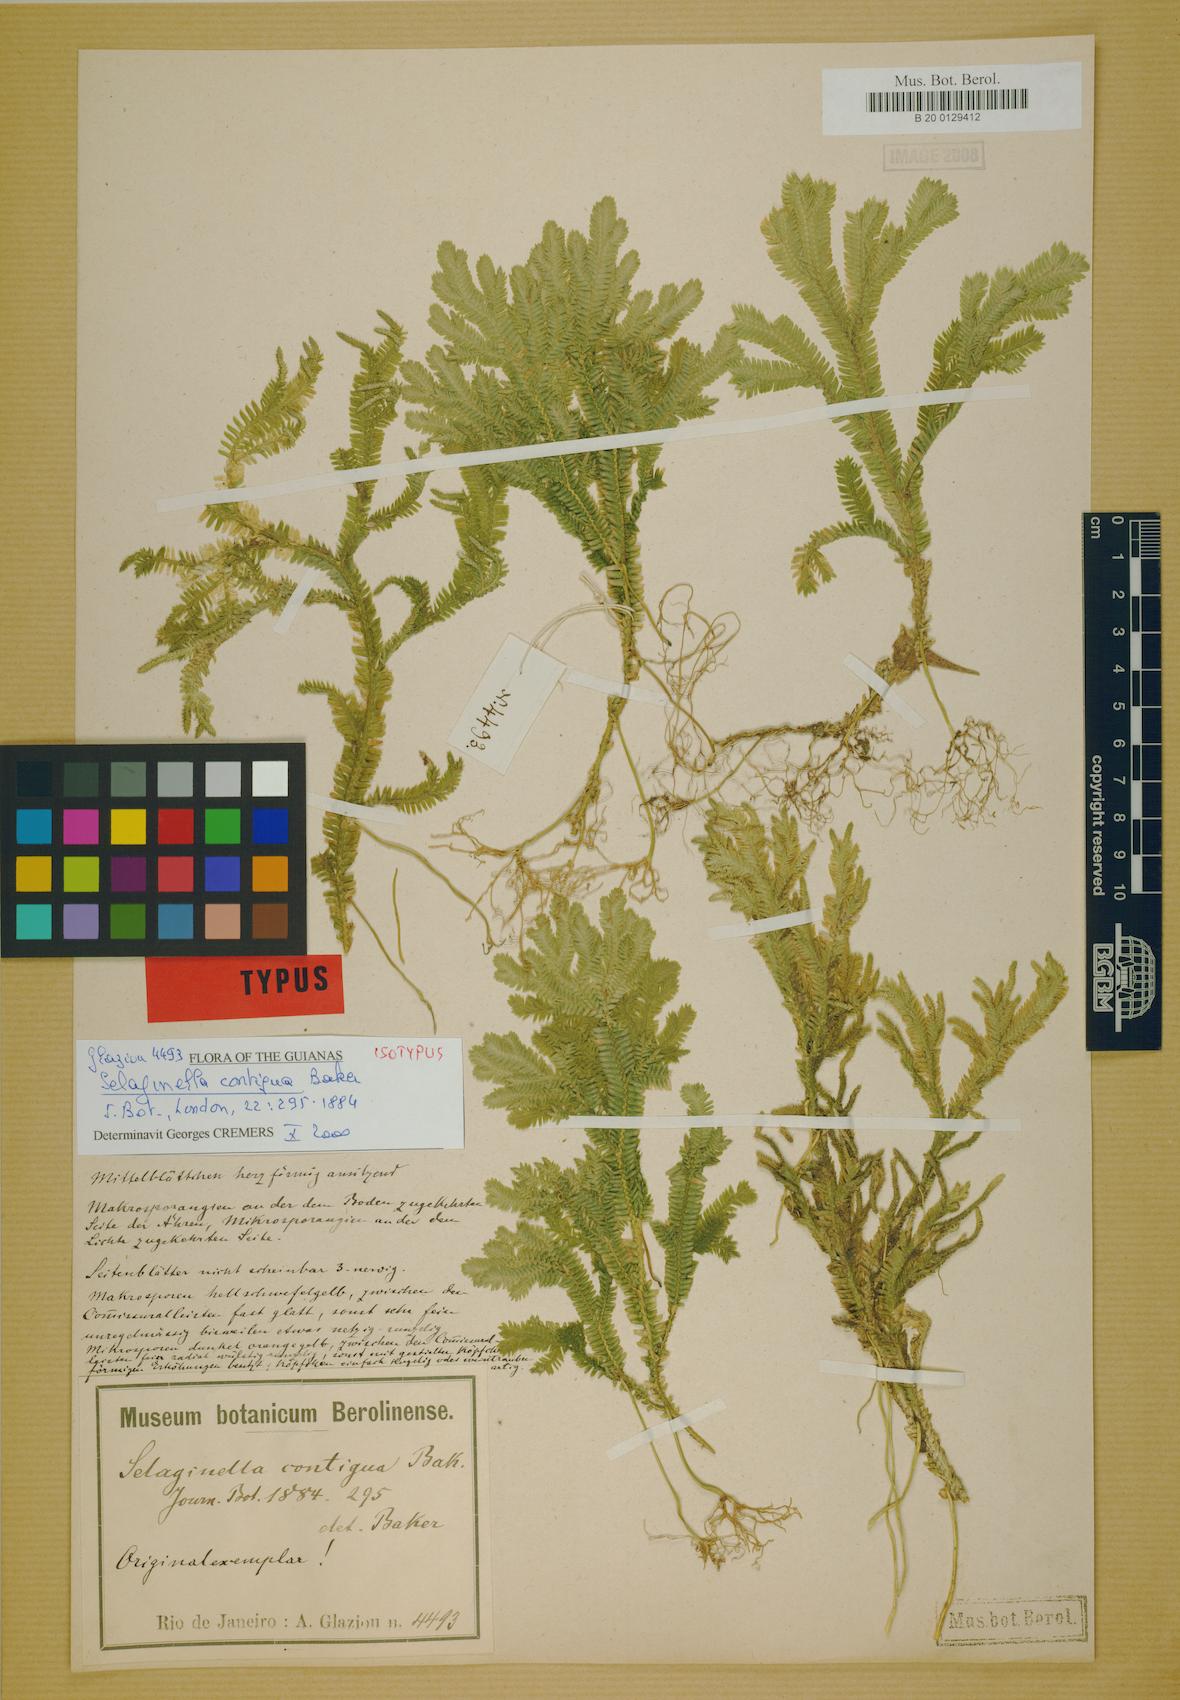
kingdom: Plantae
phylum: Tracheophyta
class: Lycopodiopsida
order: Selaginellales
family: Selaginellaceae
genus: Selaginella
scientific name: Selaginella contigua
